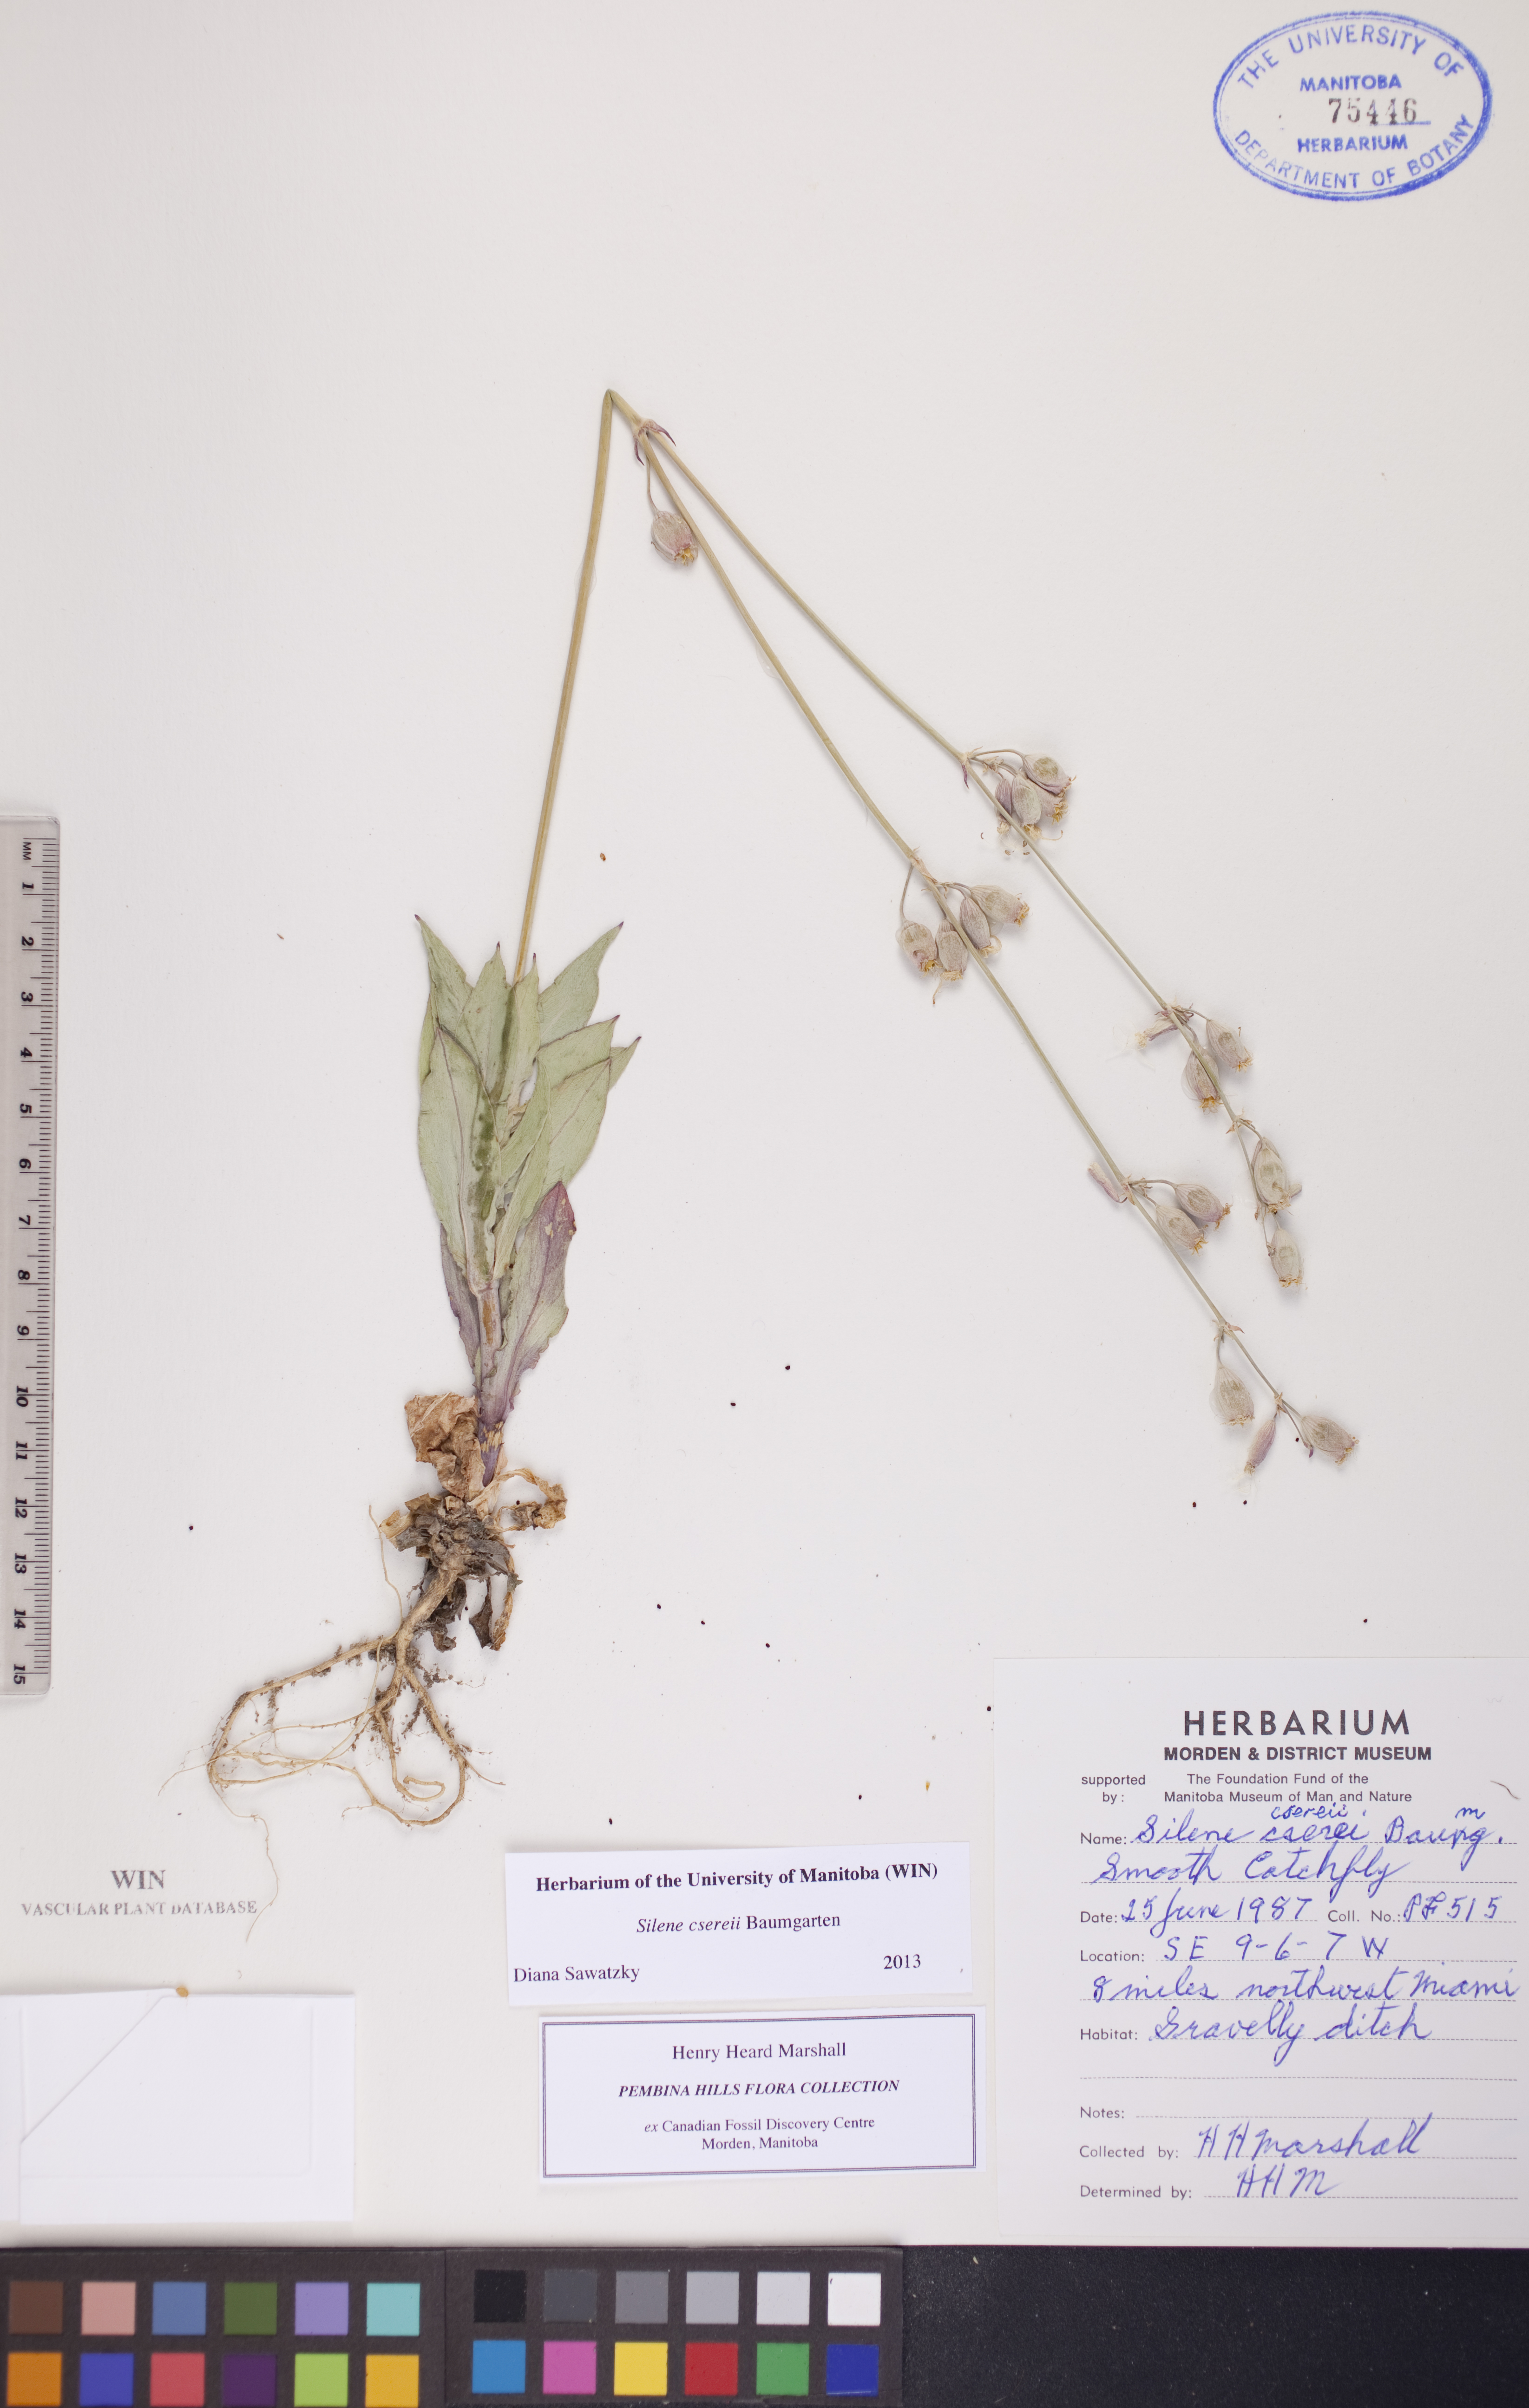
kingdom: Plantae
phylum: Tracheophyta
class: Magnoliopsida
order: Caryophyllales
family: Caryophyllaceae
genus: Silene
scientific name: Silene csereii
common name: Balkan catchfly
